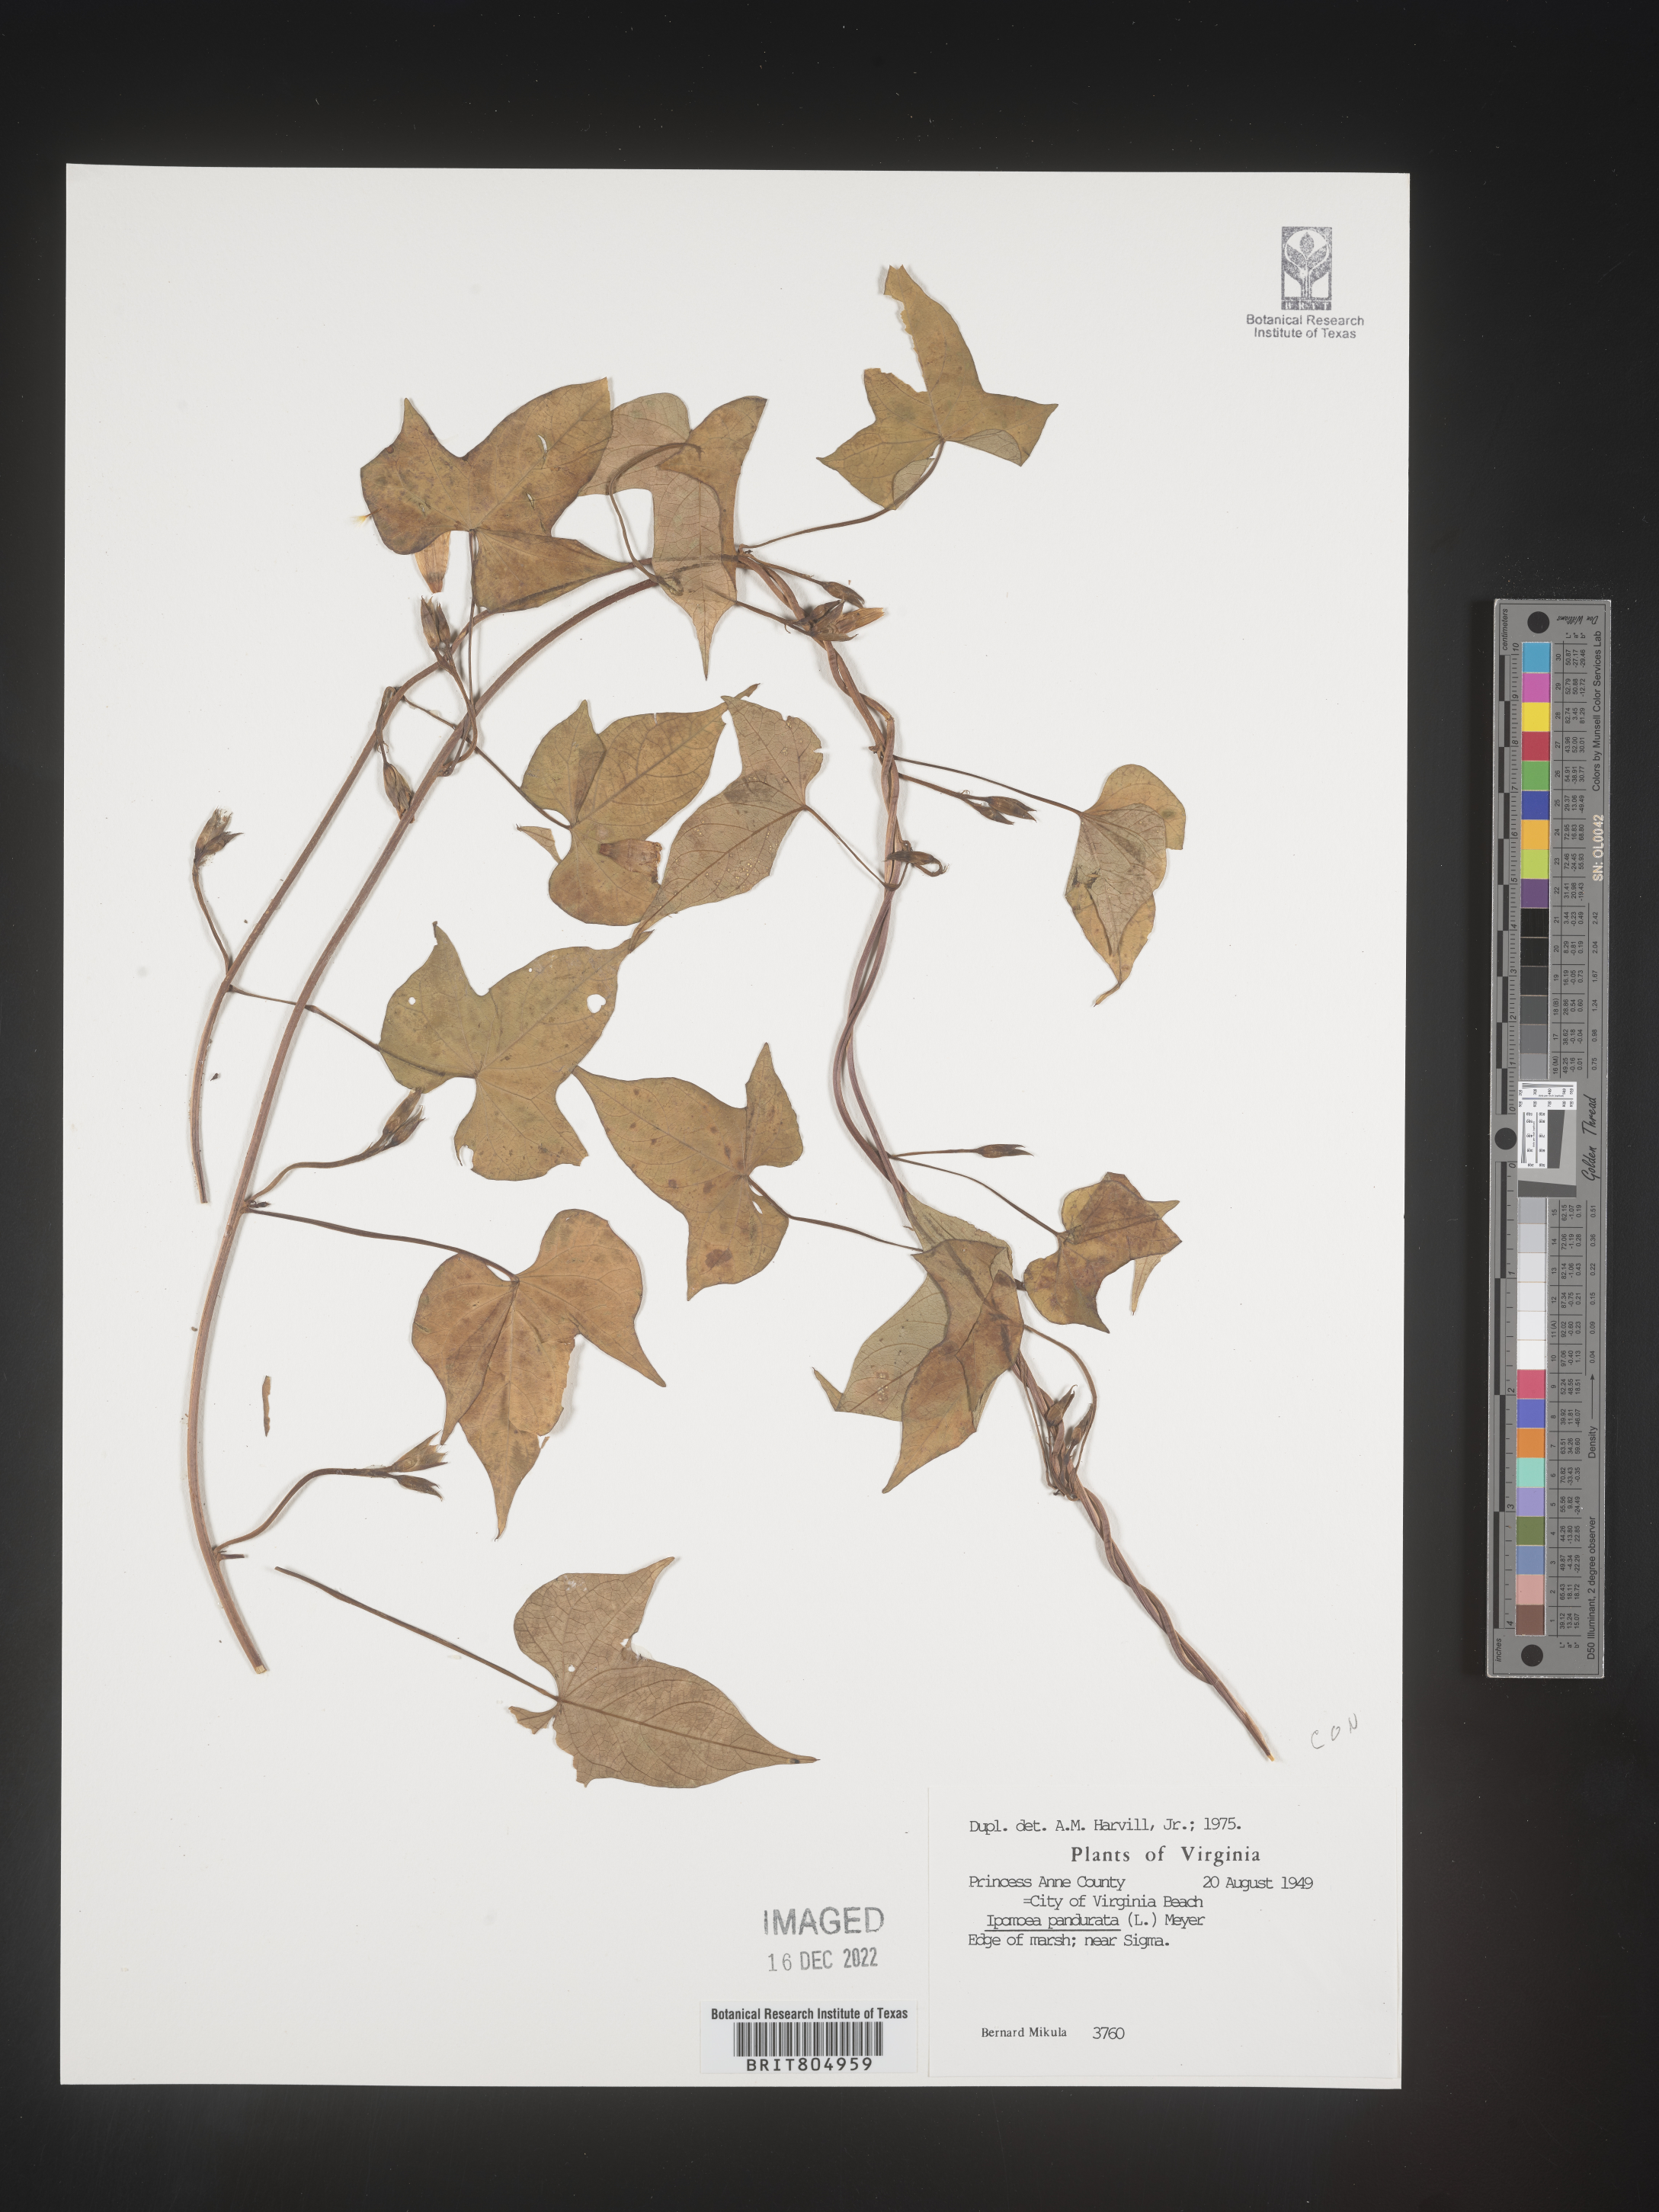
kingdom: Plantae
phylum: Tracheophyta
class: Magnoliopsida
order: Solanales
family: Convolvulaceae
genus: Ipomoea
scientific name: Ipomoea pandurata
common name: Man-of-the-earth
